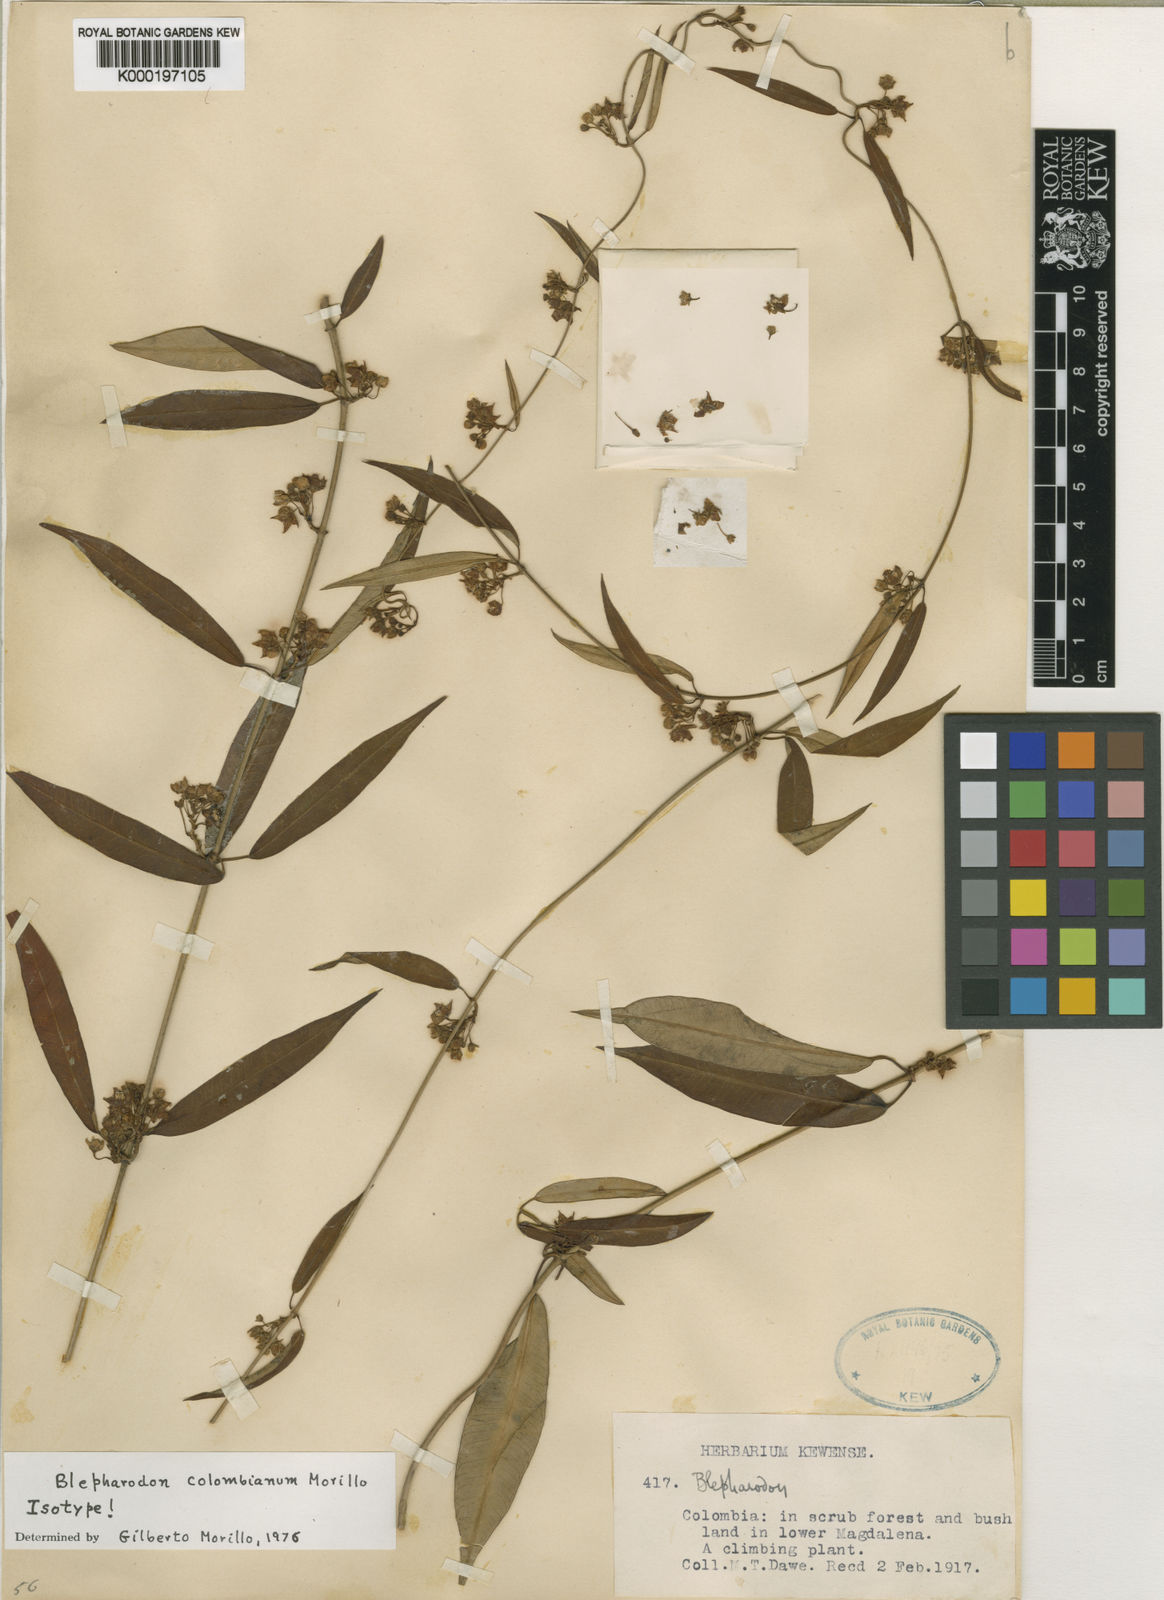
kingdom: Plantae
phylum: Tracheophyta
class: Magnoliopsida
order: Gentianales
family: Apocynaceae
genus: Blepharodon
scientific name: Blepharodon colombianum
